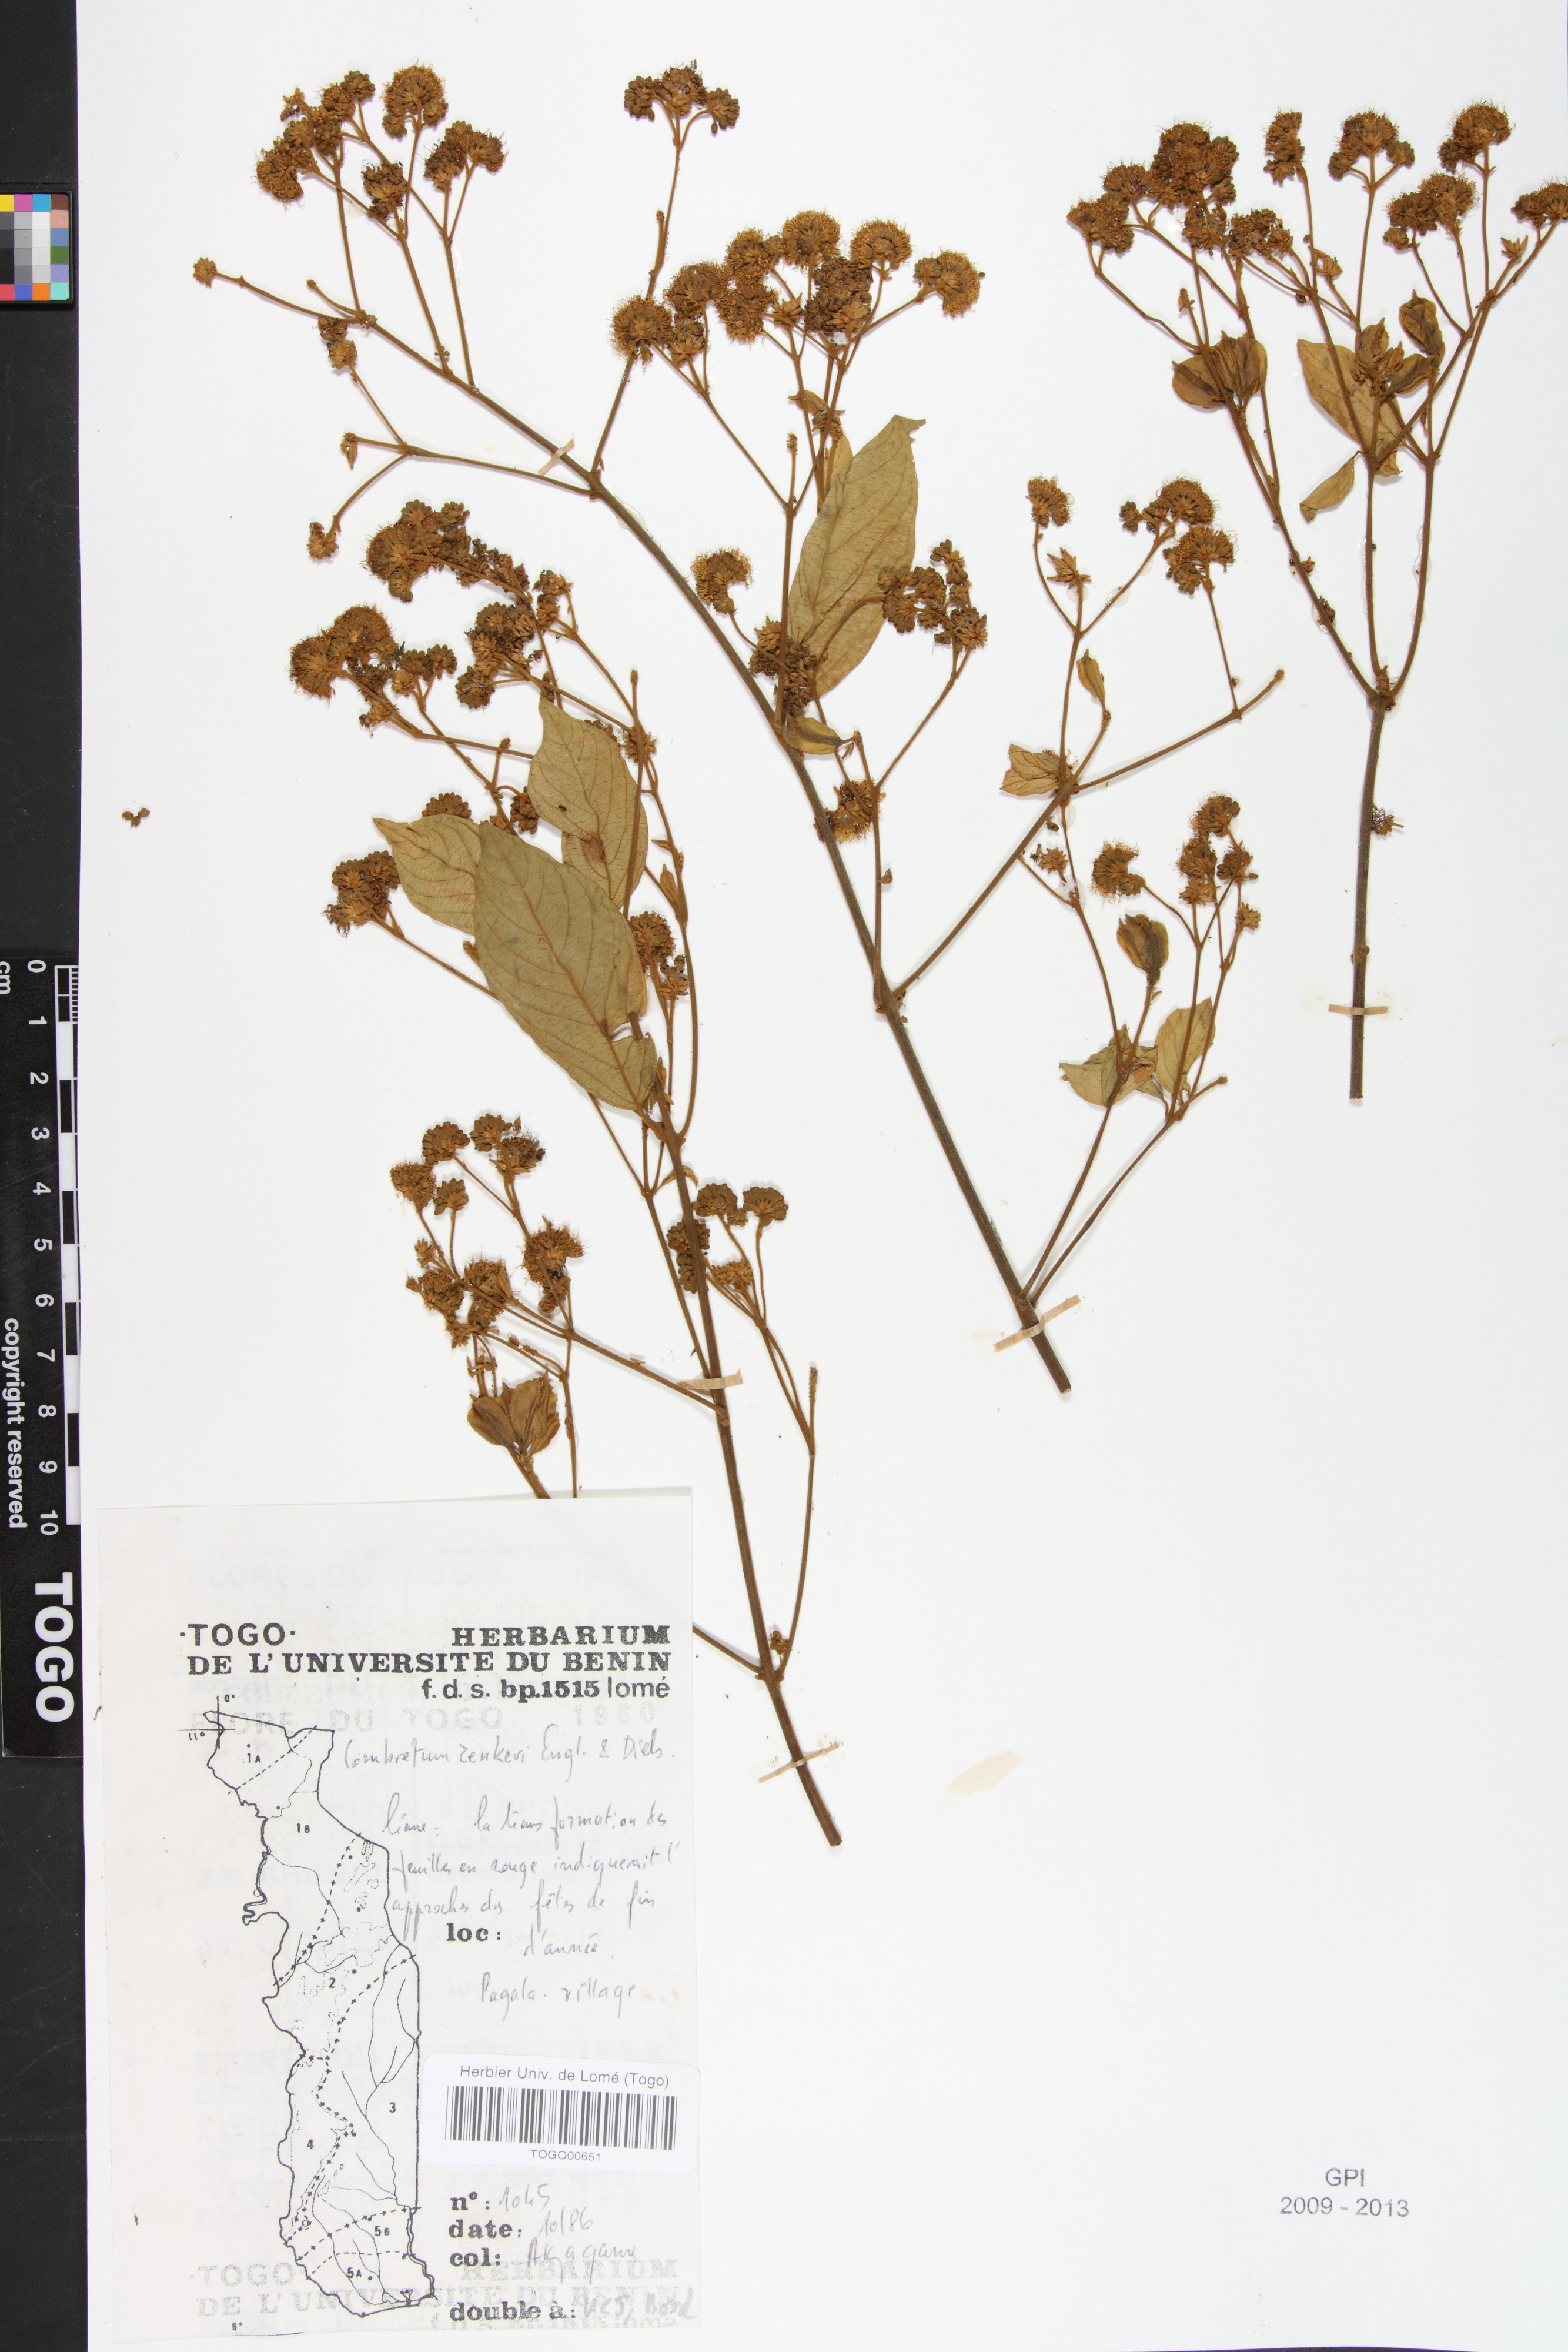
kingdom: Plantae
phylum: Tracheophyta
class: Magnoliopsida
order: Myrtales
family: Combretaceae
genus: Combretum
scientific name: Combretum zenkeri
